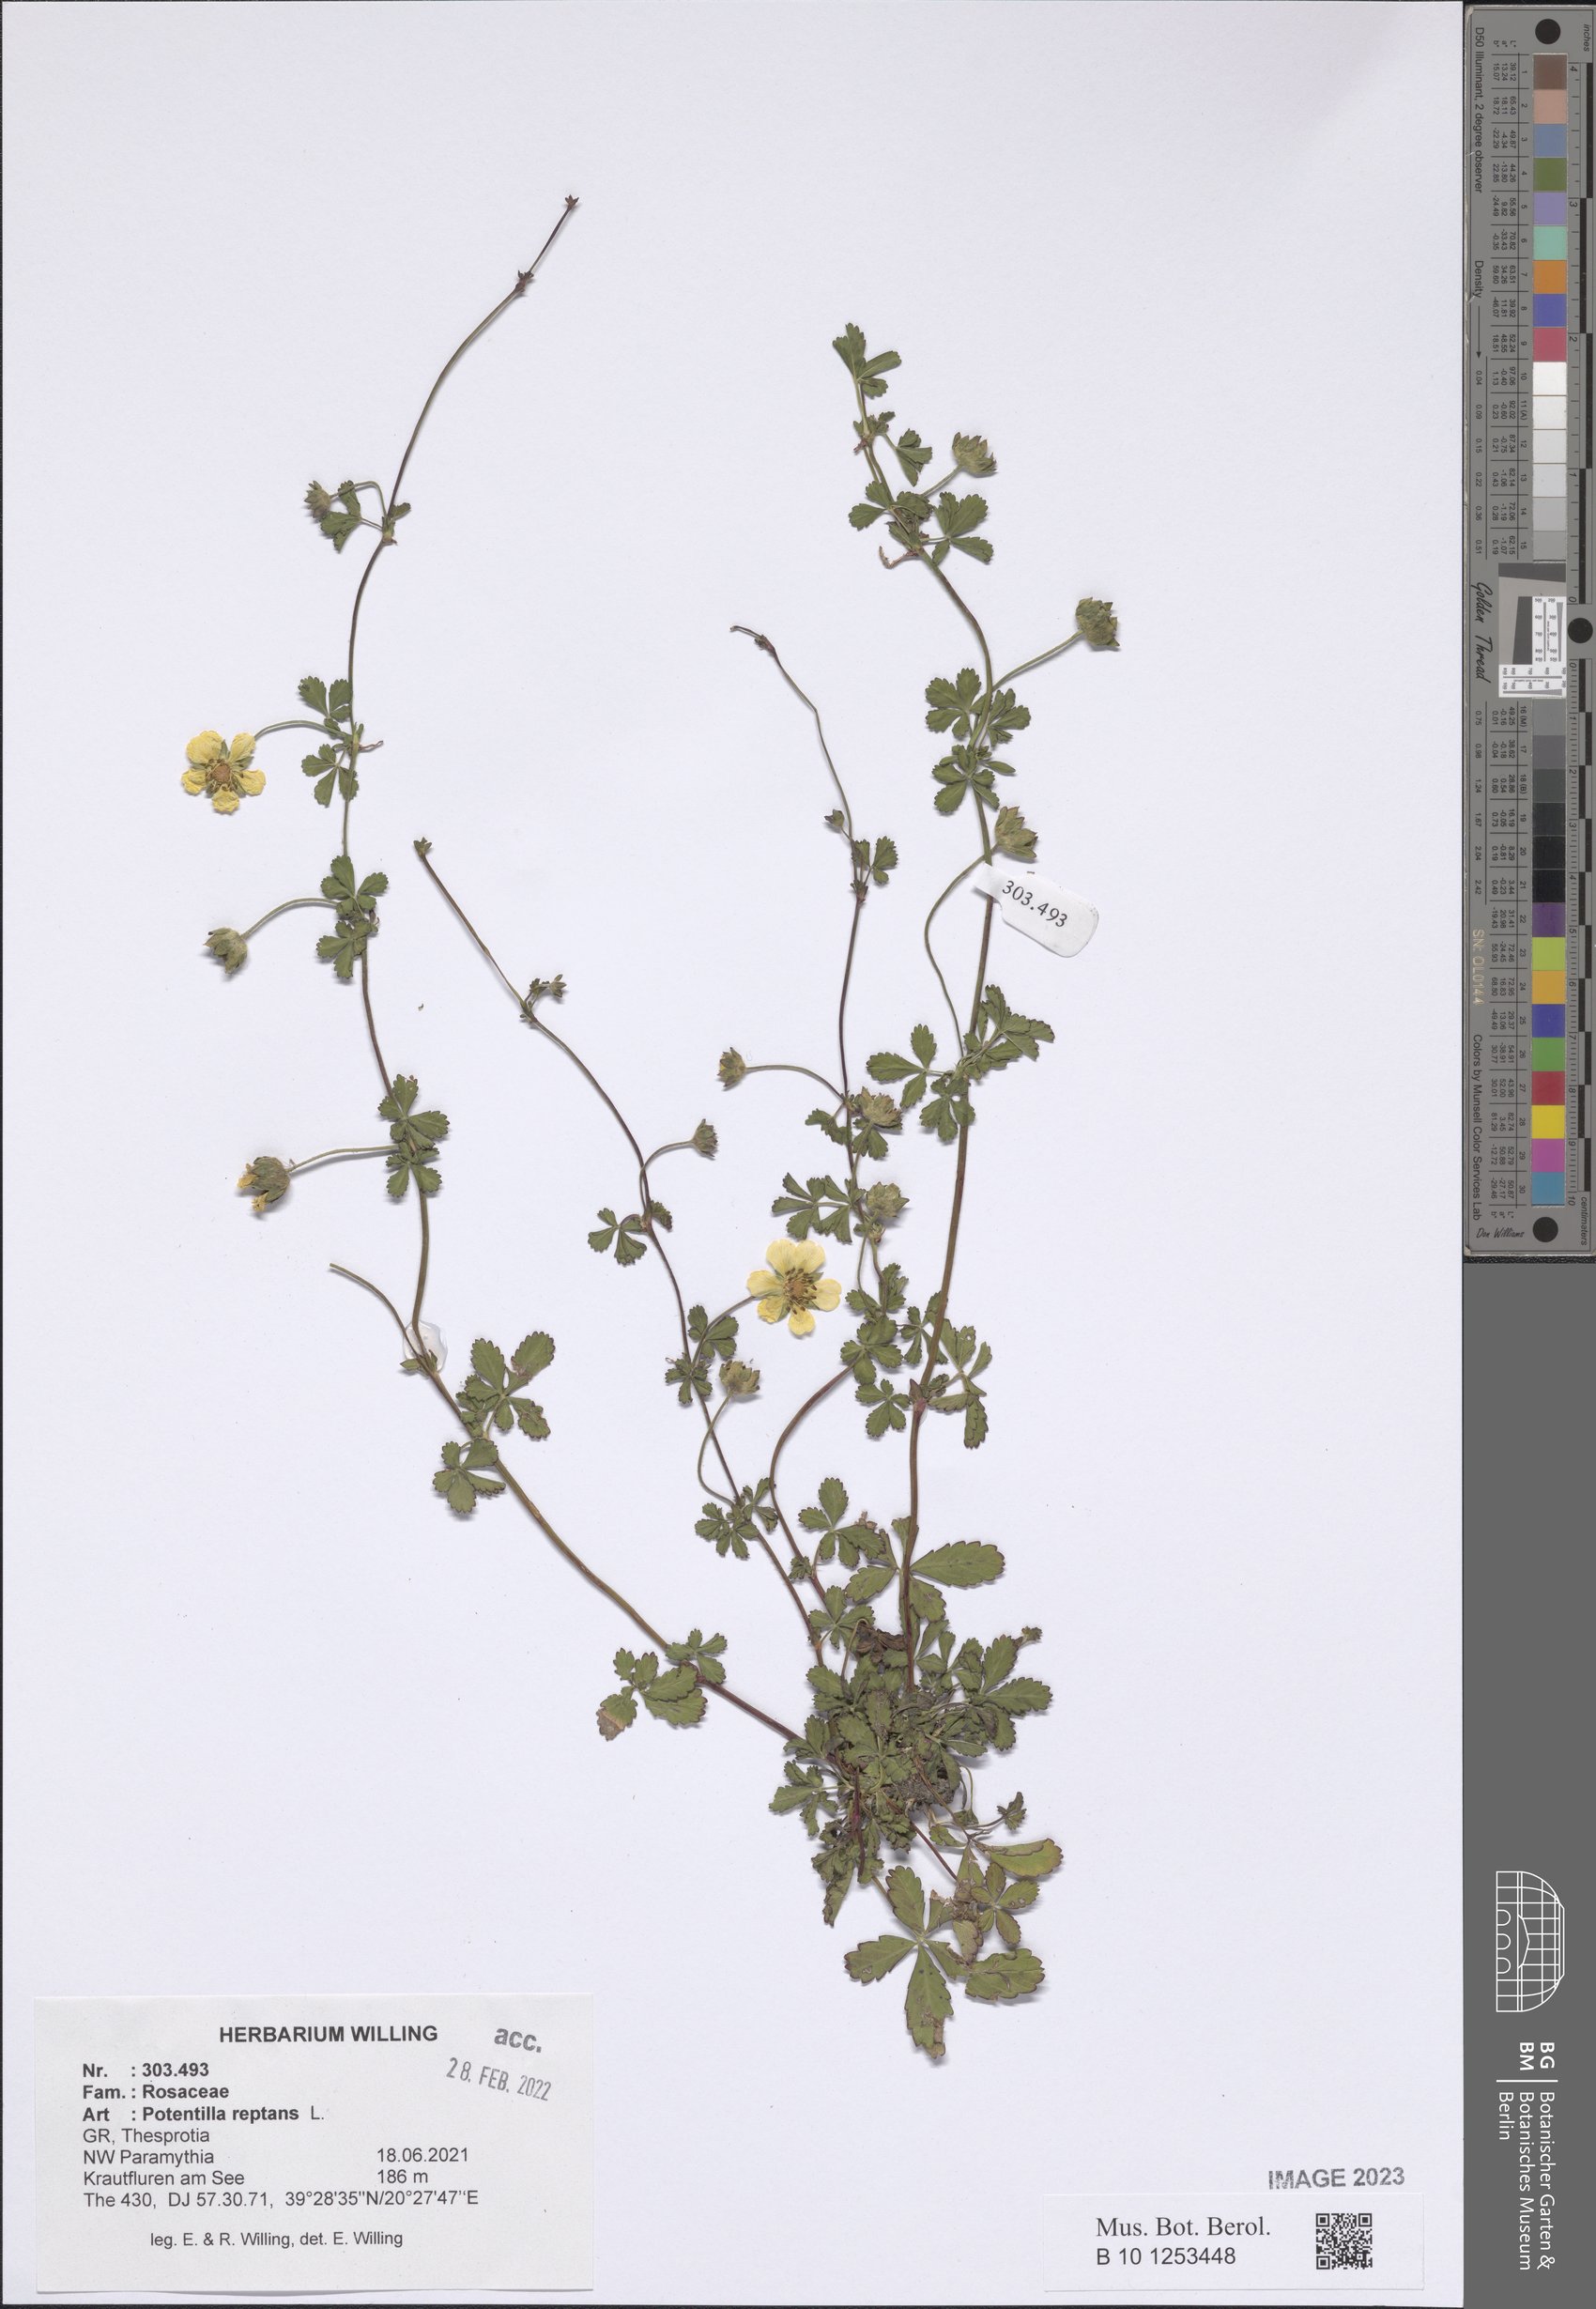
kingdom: Plantae
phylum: Tracheophyta
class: Magnoliopsida
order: Rosales
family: Rosaceae
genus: Potentilla
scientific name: Potentilla reptans
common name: Creeping cinquefoil
